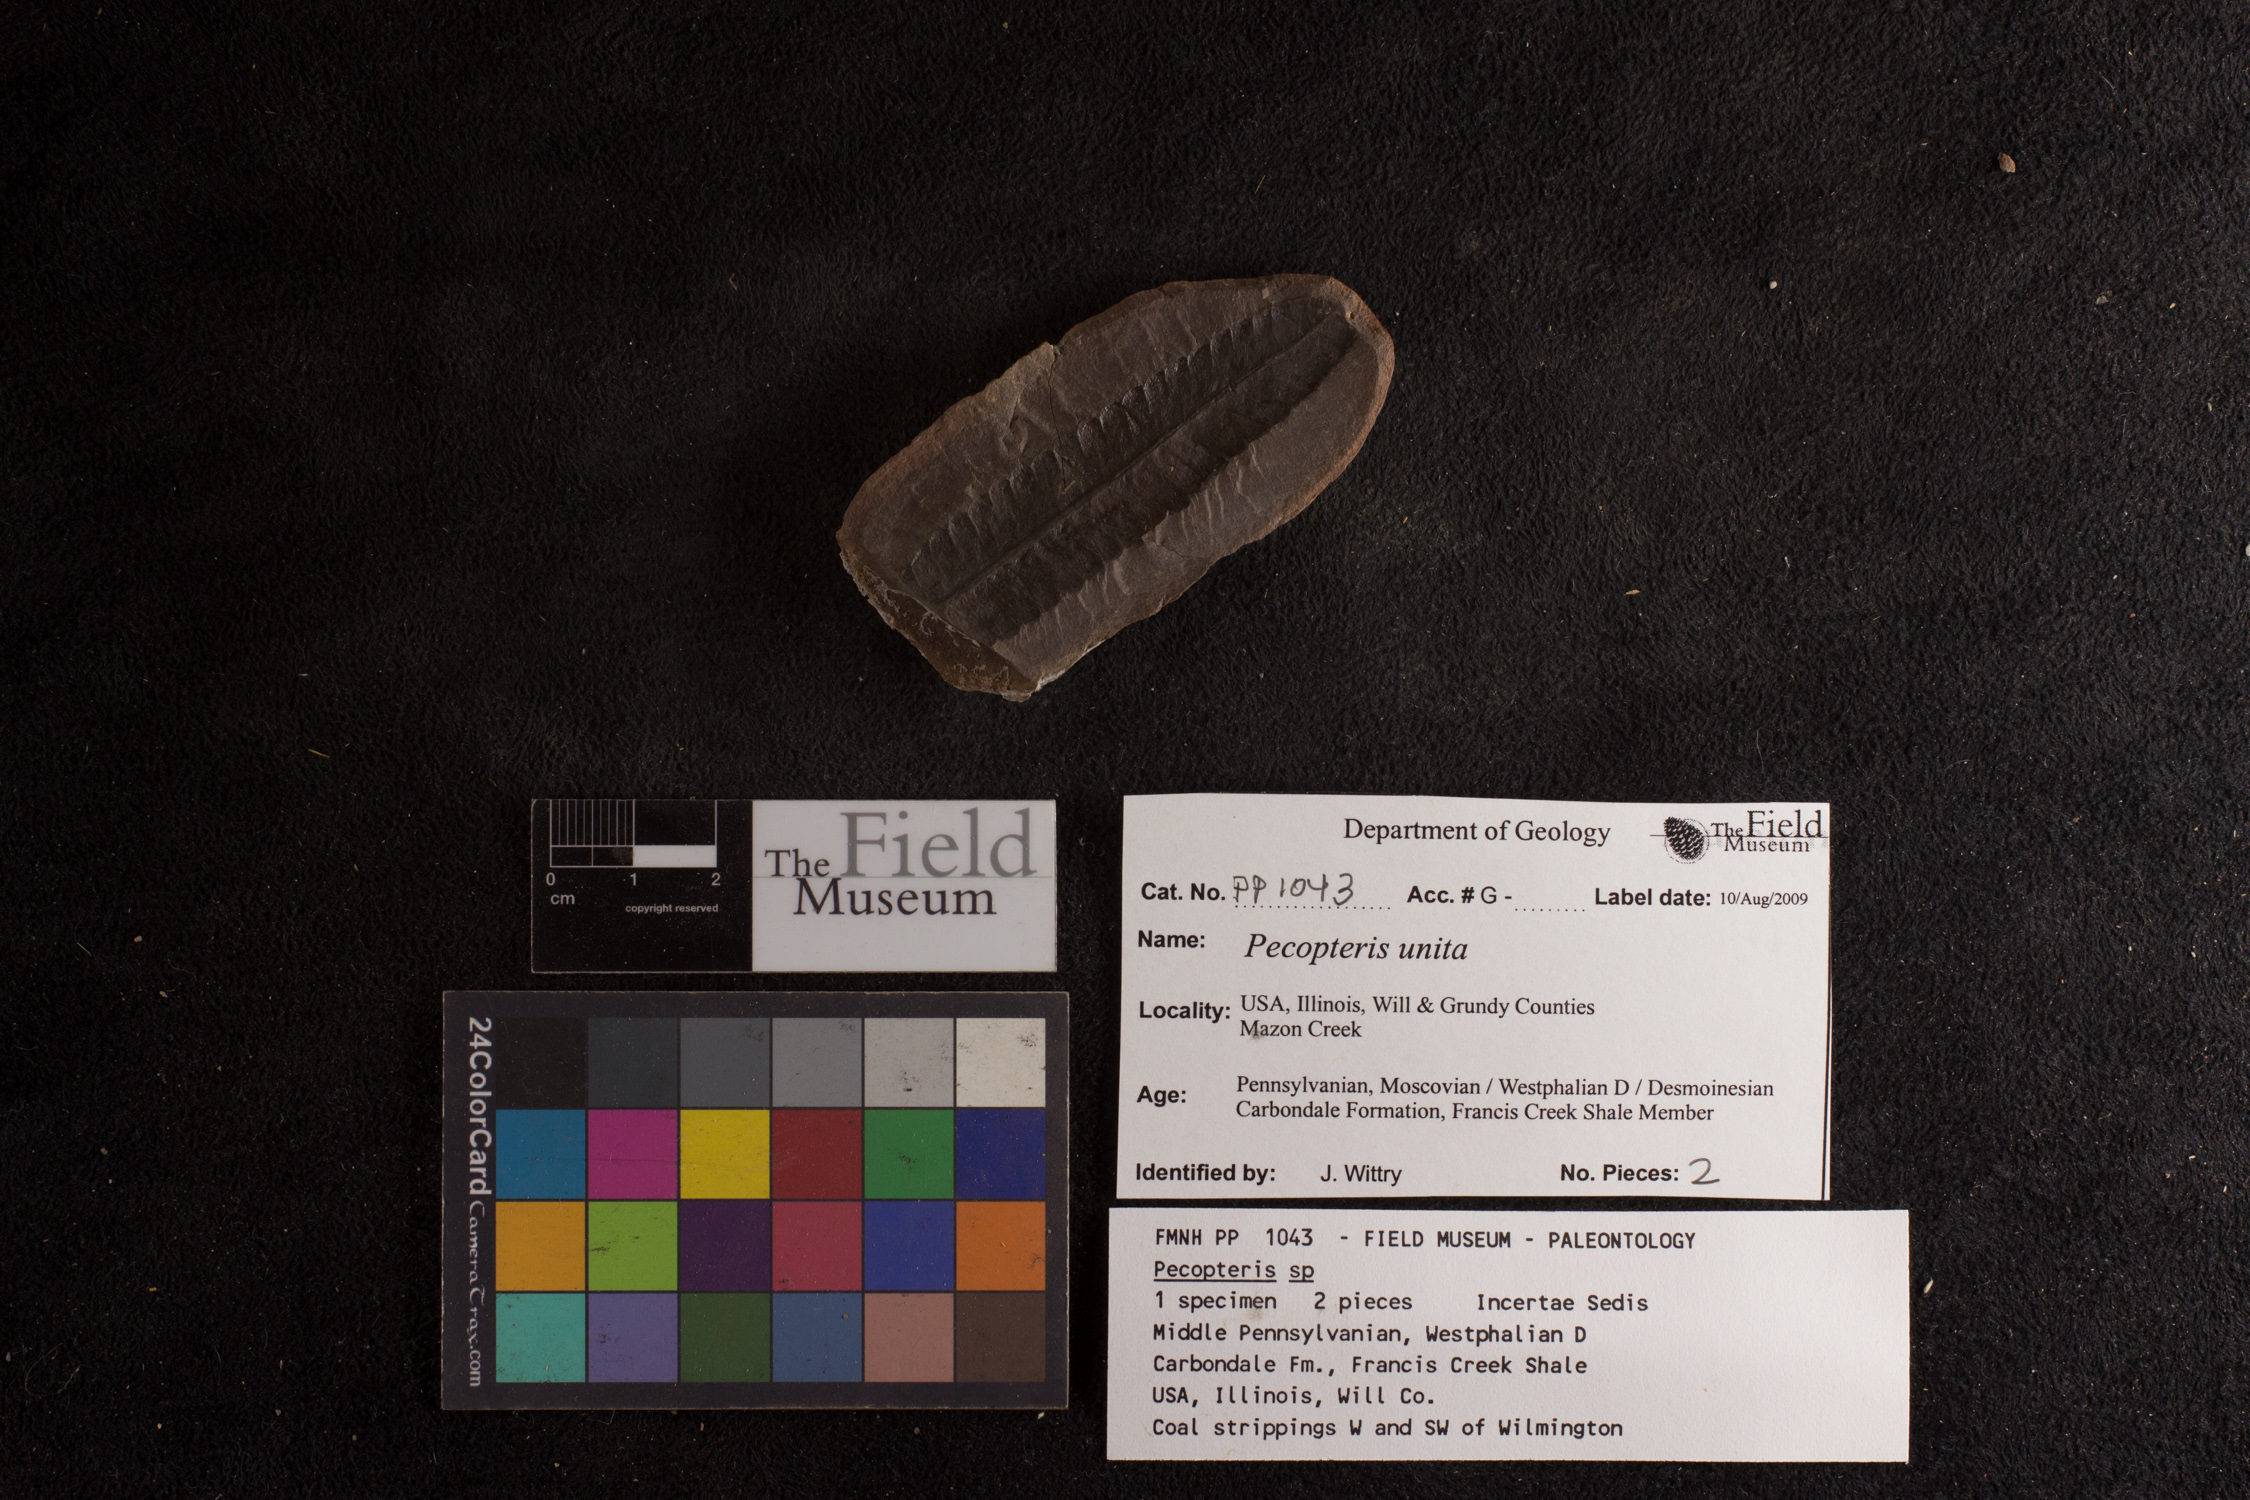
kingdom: Plantae
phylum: Tracheophyta
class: Polypodiopsida
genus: Diplazites
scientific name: Diplazites
